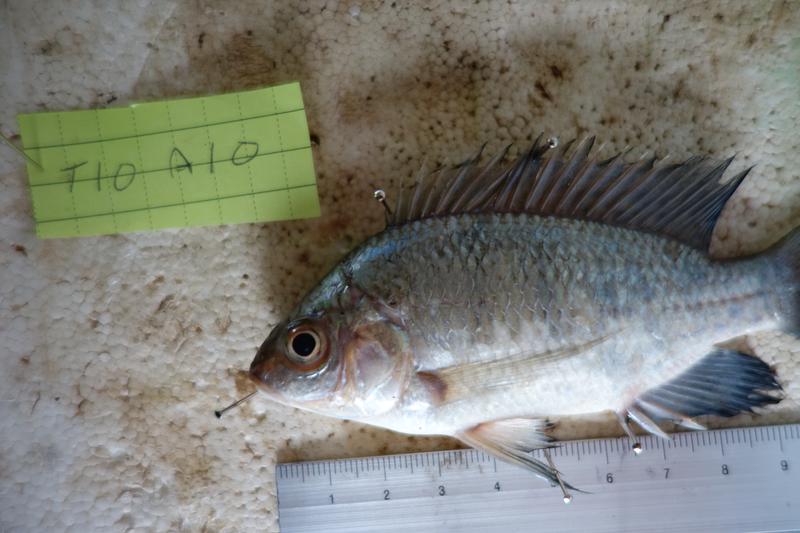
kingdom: Animalia
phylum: Chordata
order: Perciformes
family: Cichlidae
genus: Oreochromis
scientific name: Oreochromis rukwaensis
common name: Lake rukwa tilapia
